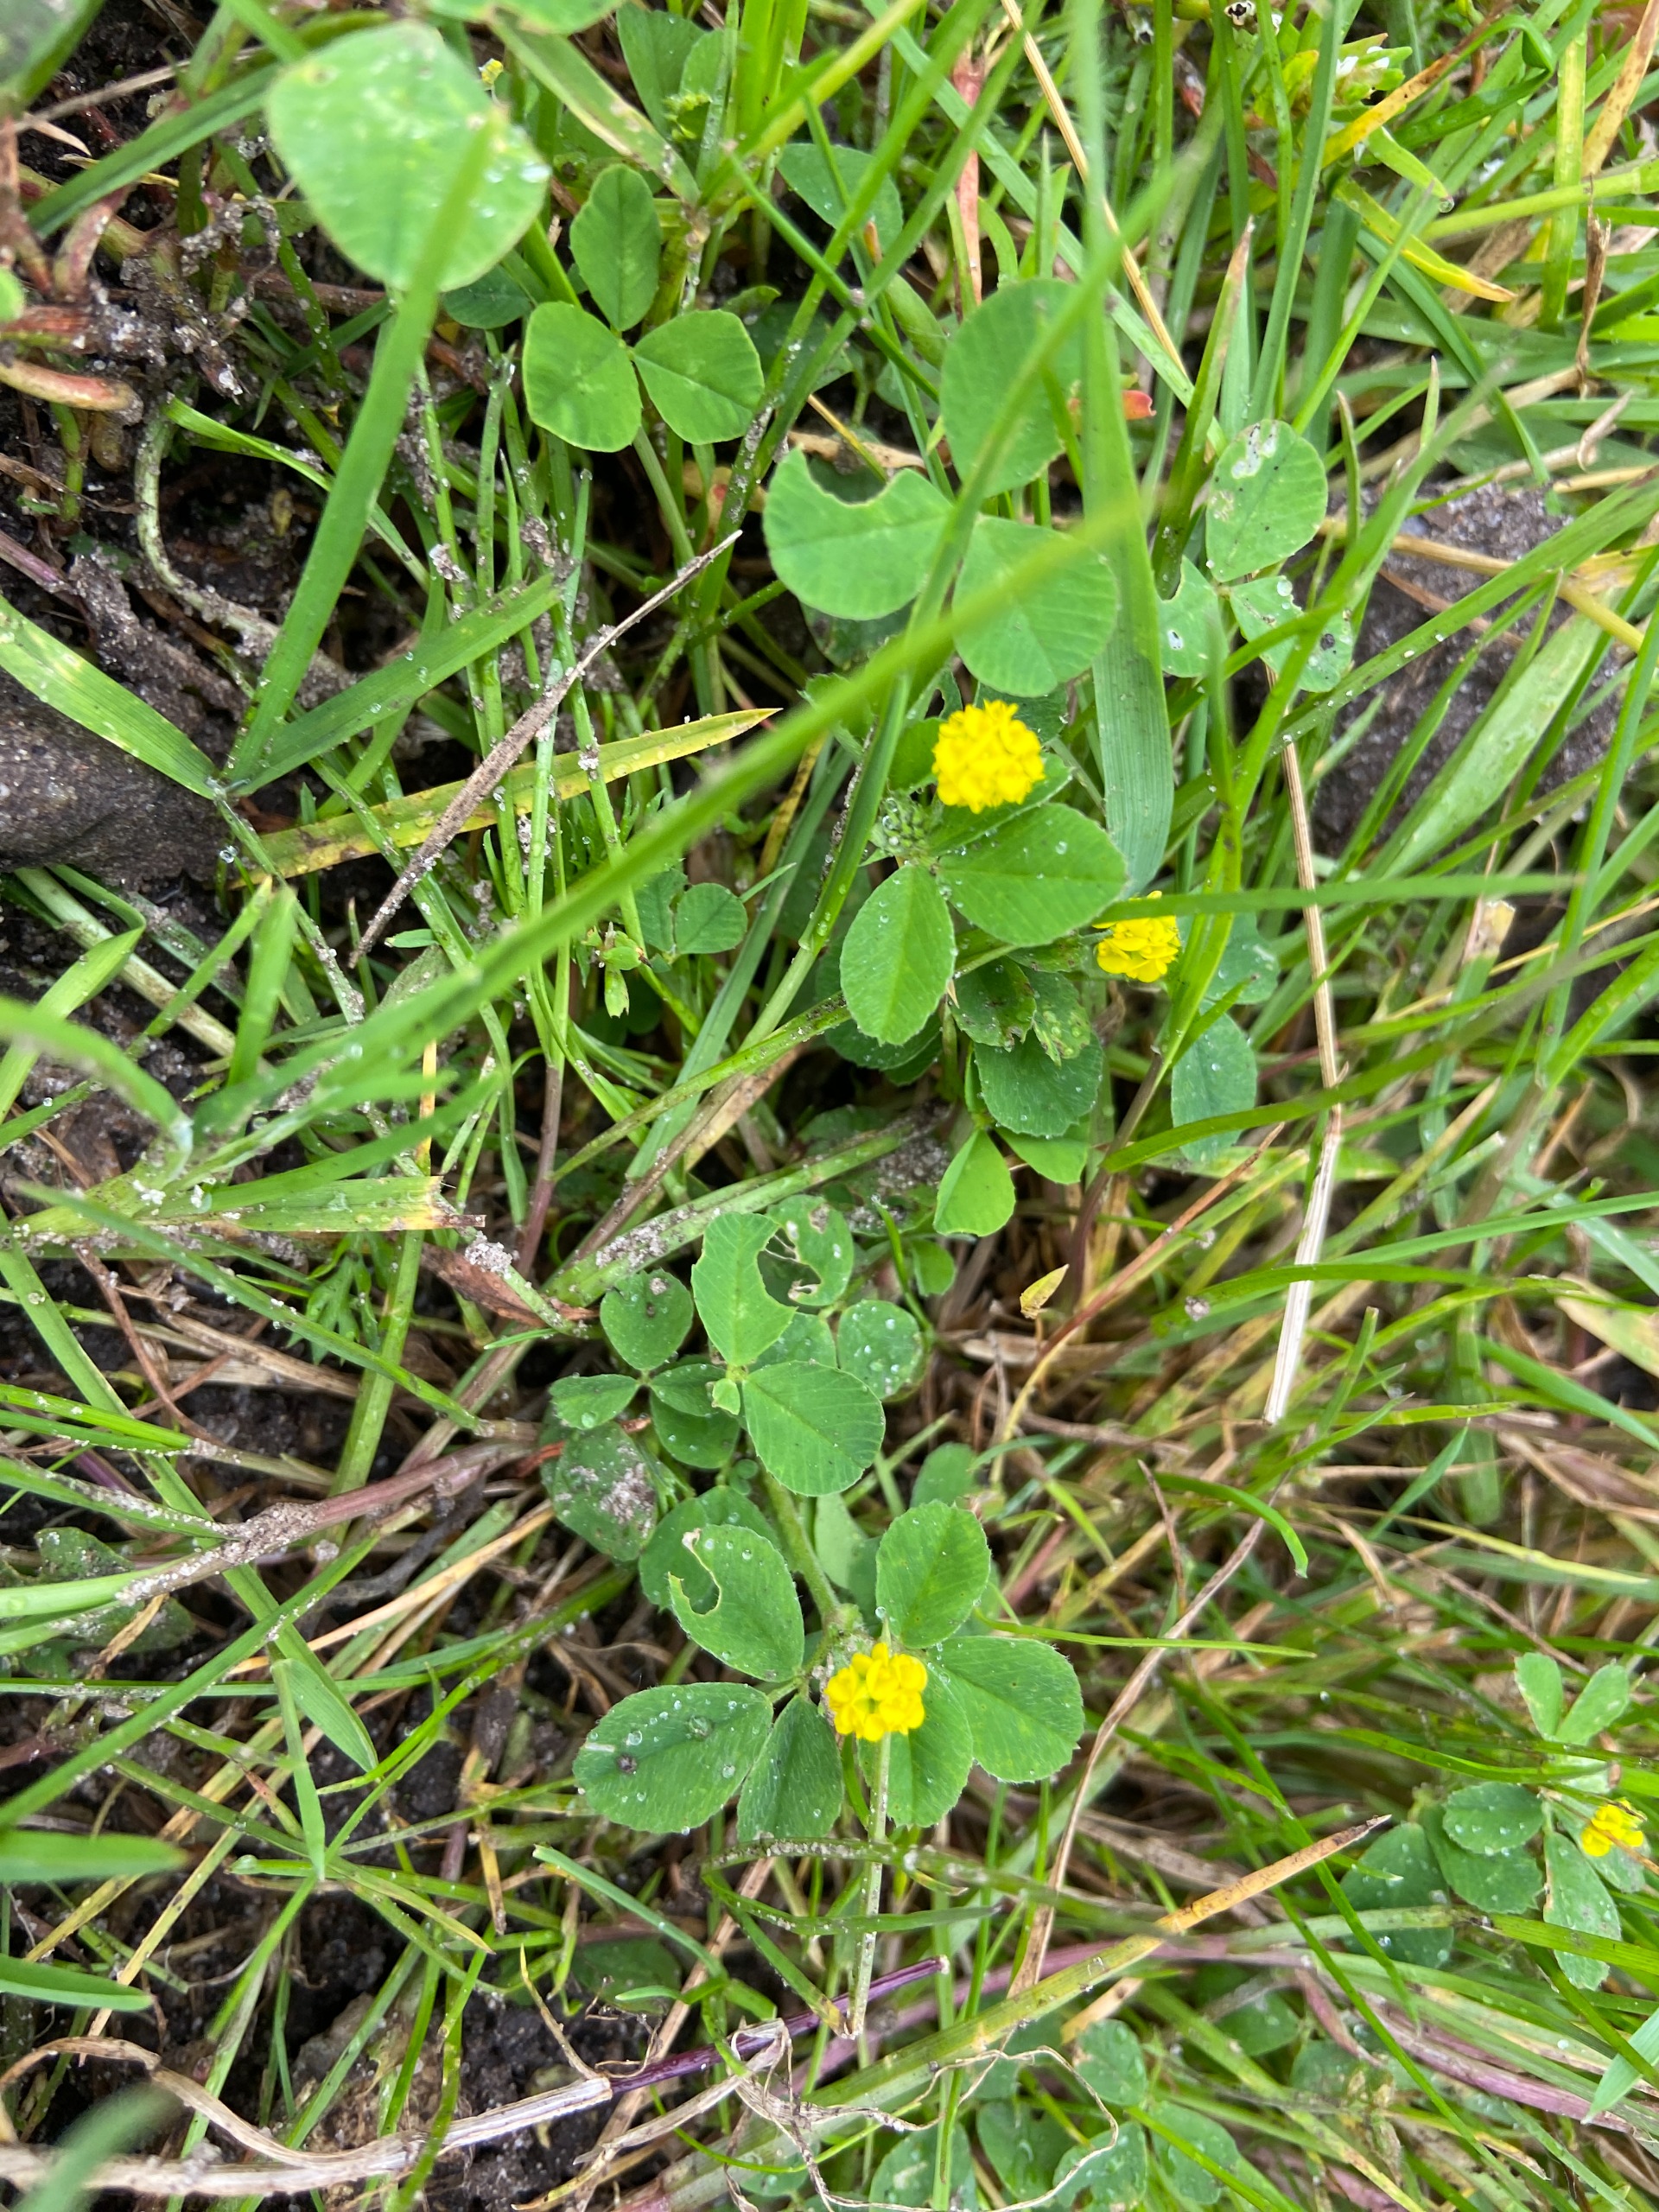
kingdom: Plantae
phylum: Tracheophyta
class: Magnoliopsida
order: Fabales
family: Fabaceae
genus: Medicago
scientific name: Medicago lupulina
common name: Humle-sneglebælg
